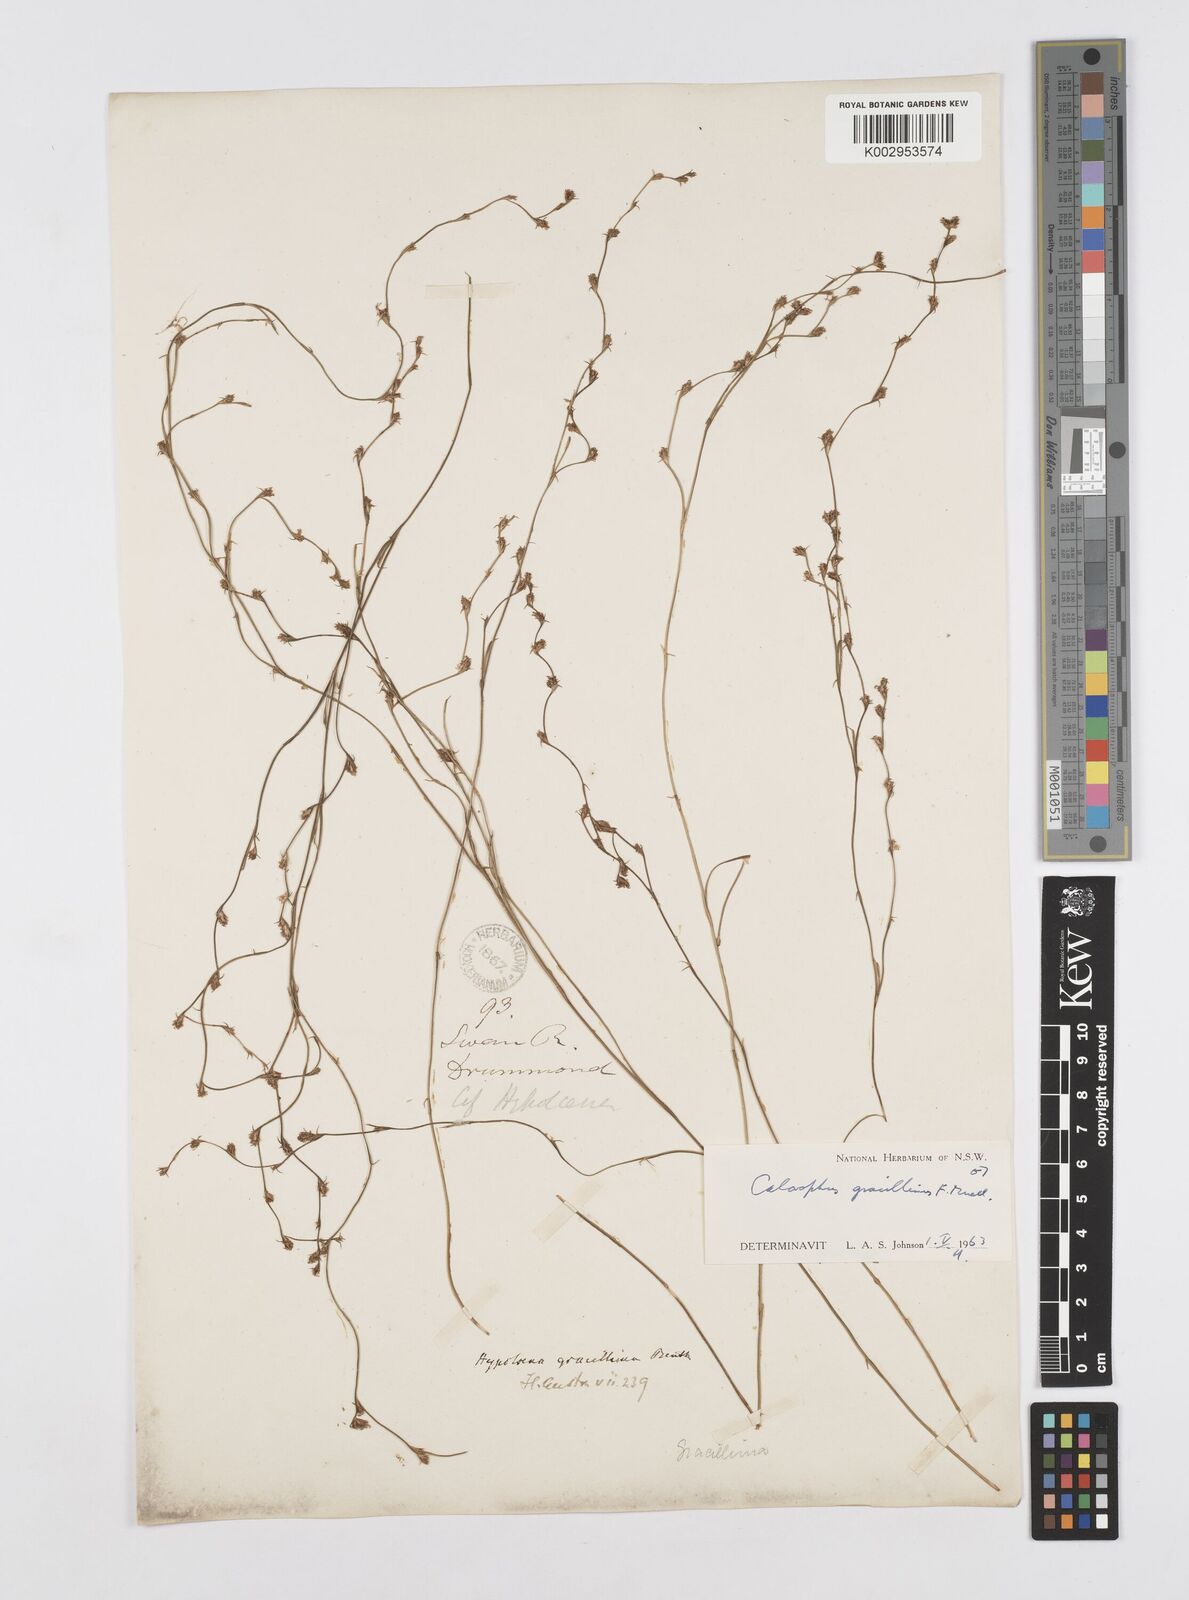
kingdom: Plantae
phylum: Tracheophyta
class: Liliopsida
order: Poales
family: Restionaceae
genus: Empodisma
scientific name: Empodisma gracillimum
